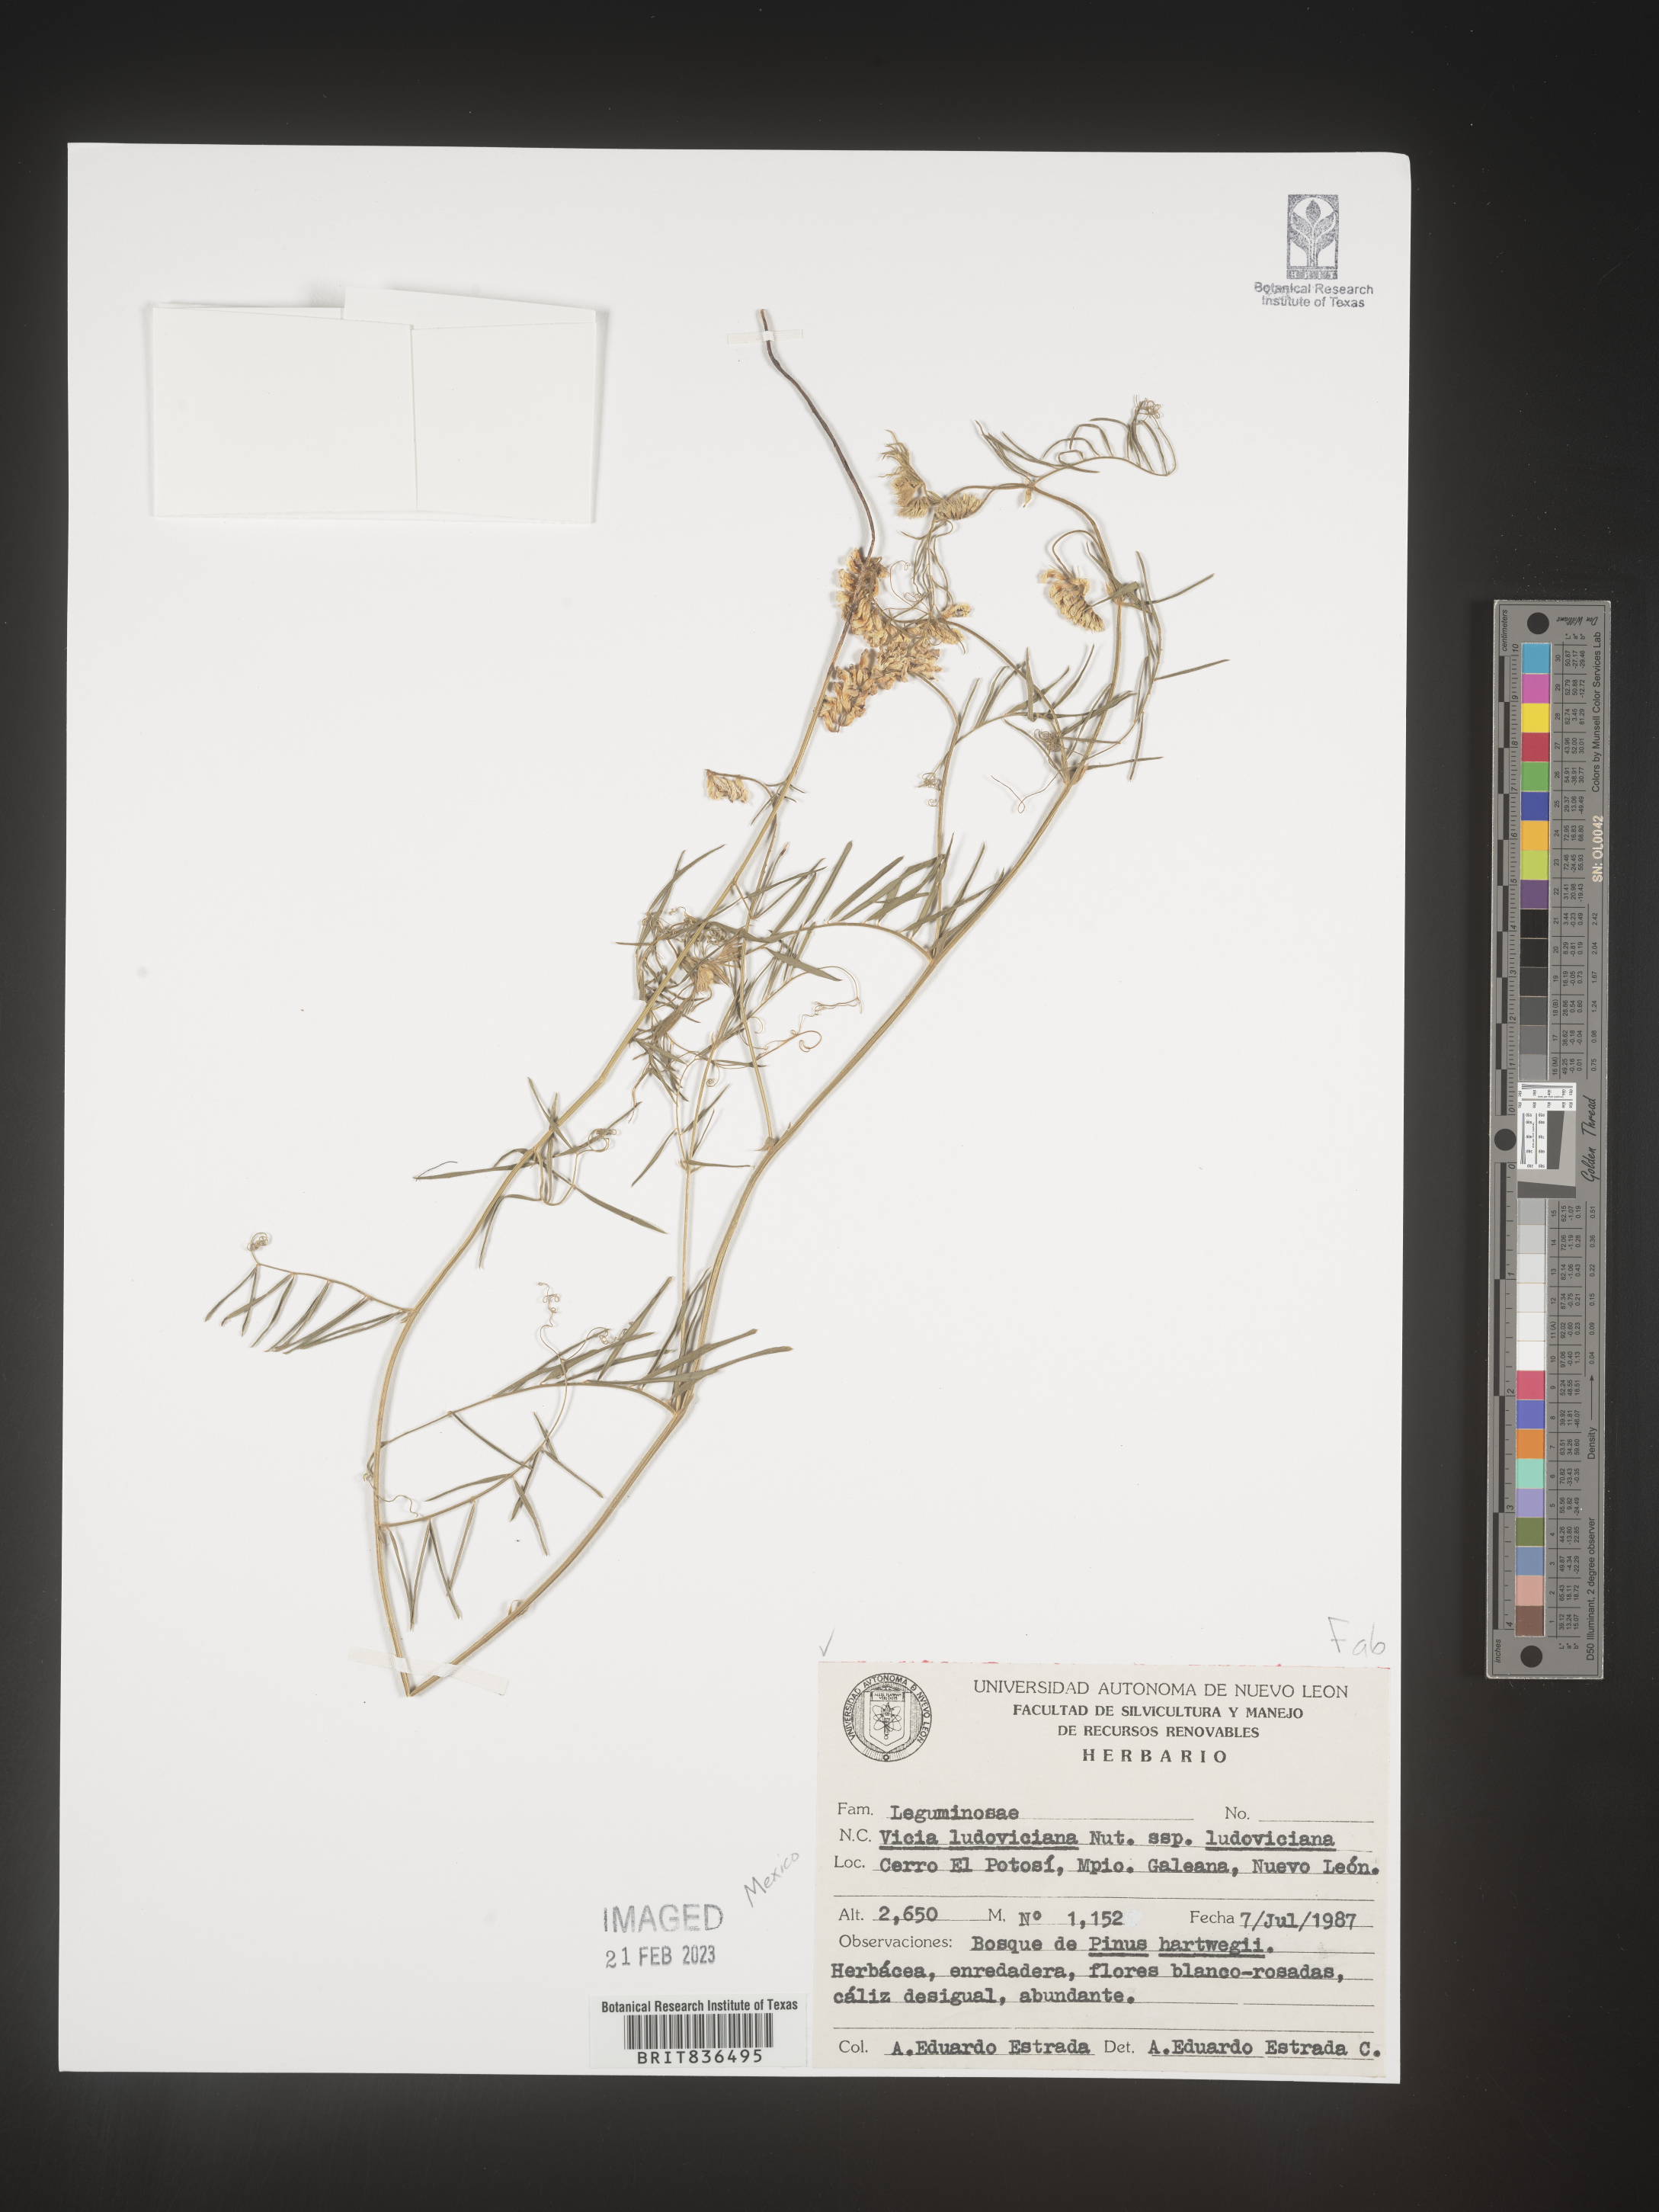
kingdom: Plantae
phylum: Tracheophyta
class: Magnoliopsida
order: Fabales
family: Fabaceae
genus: Vicia
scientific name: Vicia
